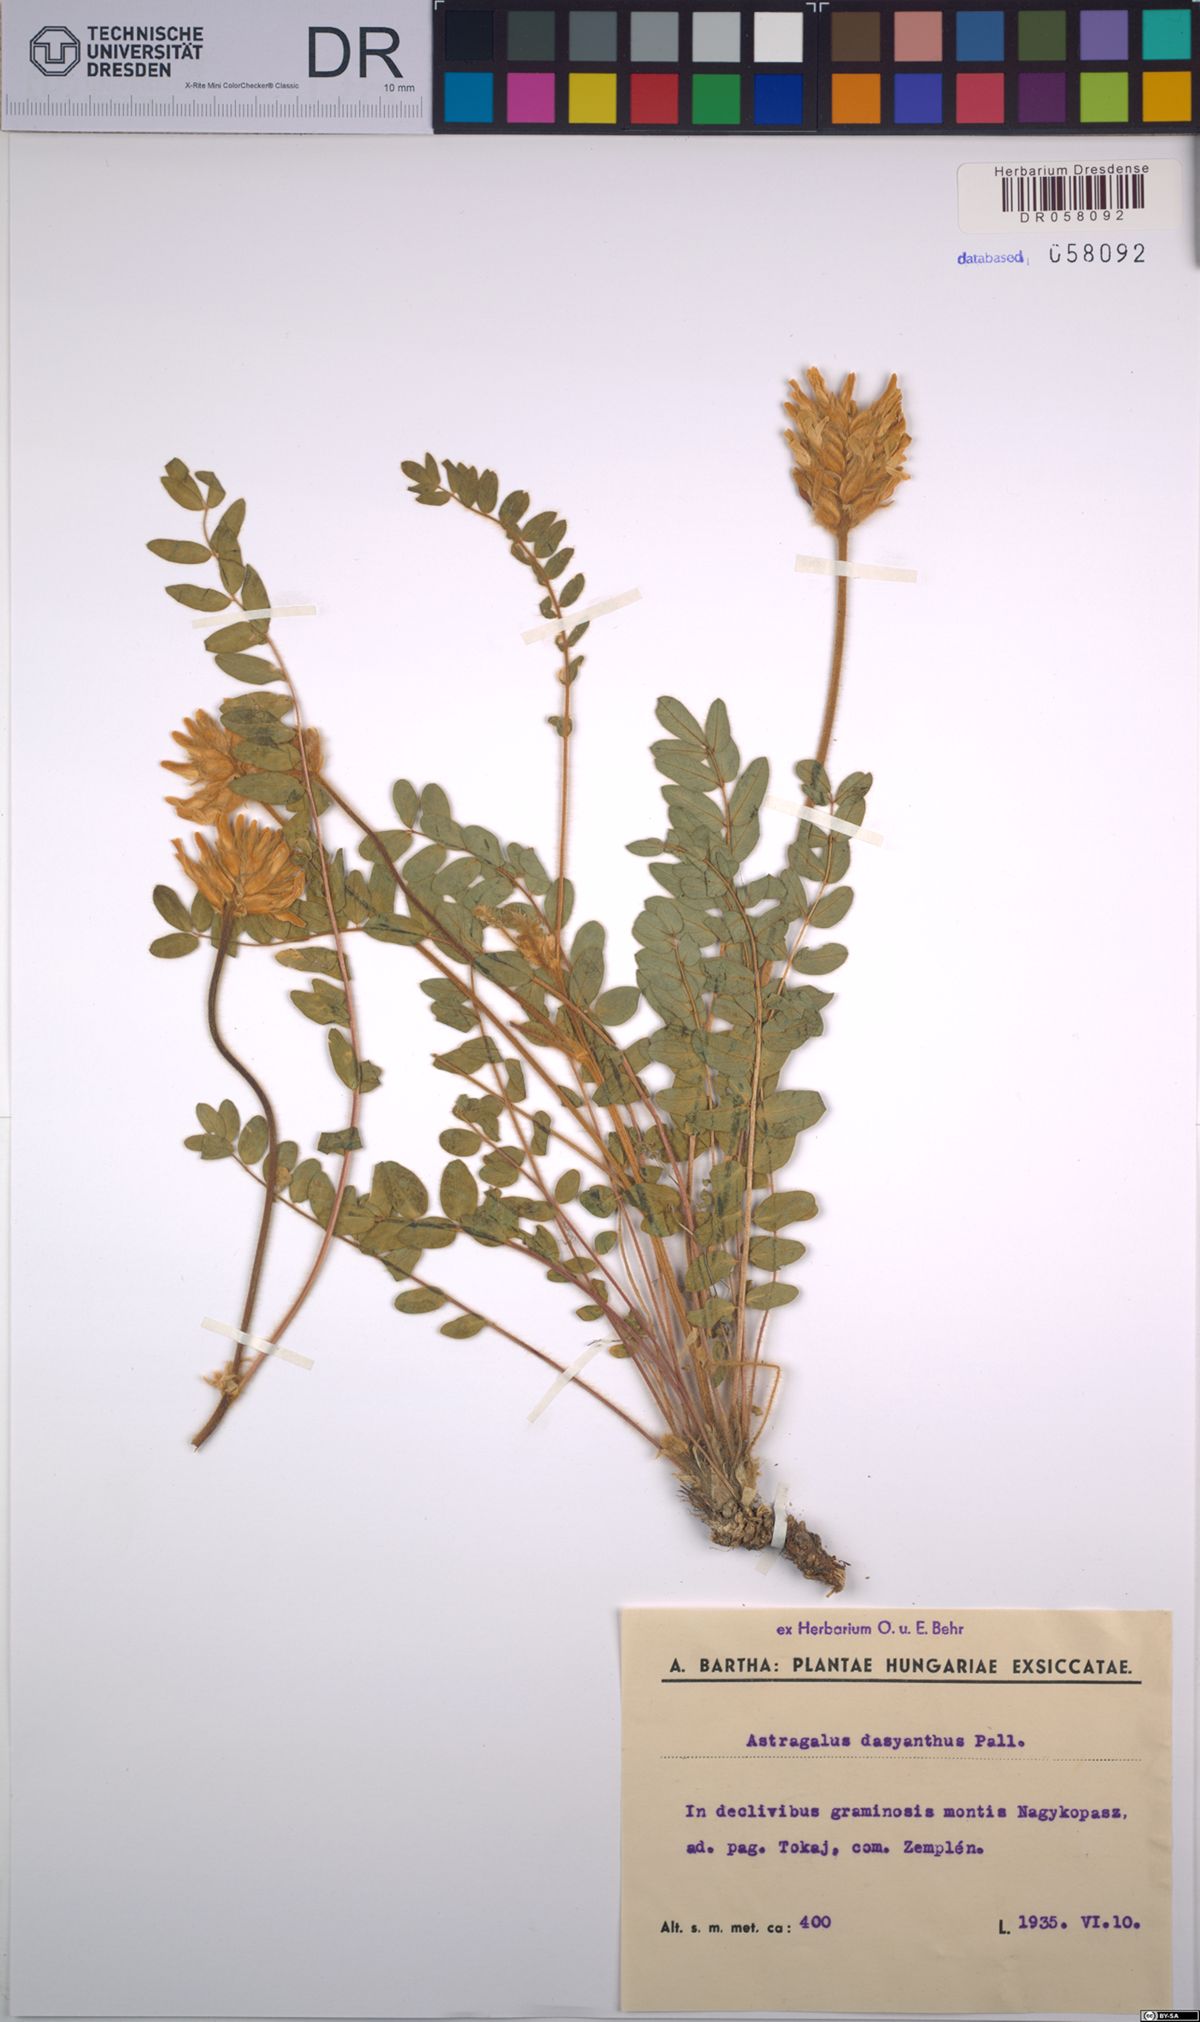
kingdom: Plantae
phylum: Tracheophyta
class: Magnoliopsida
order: Fabales
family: Fabaceae
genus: Astragalus
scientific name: Astragalus dasyanthus
